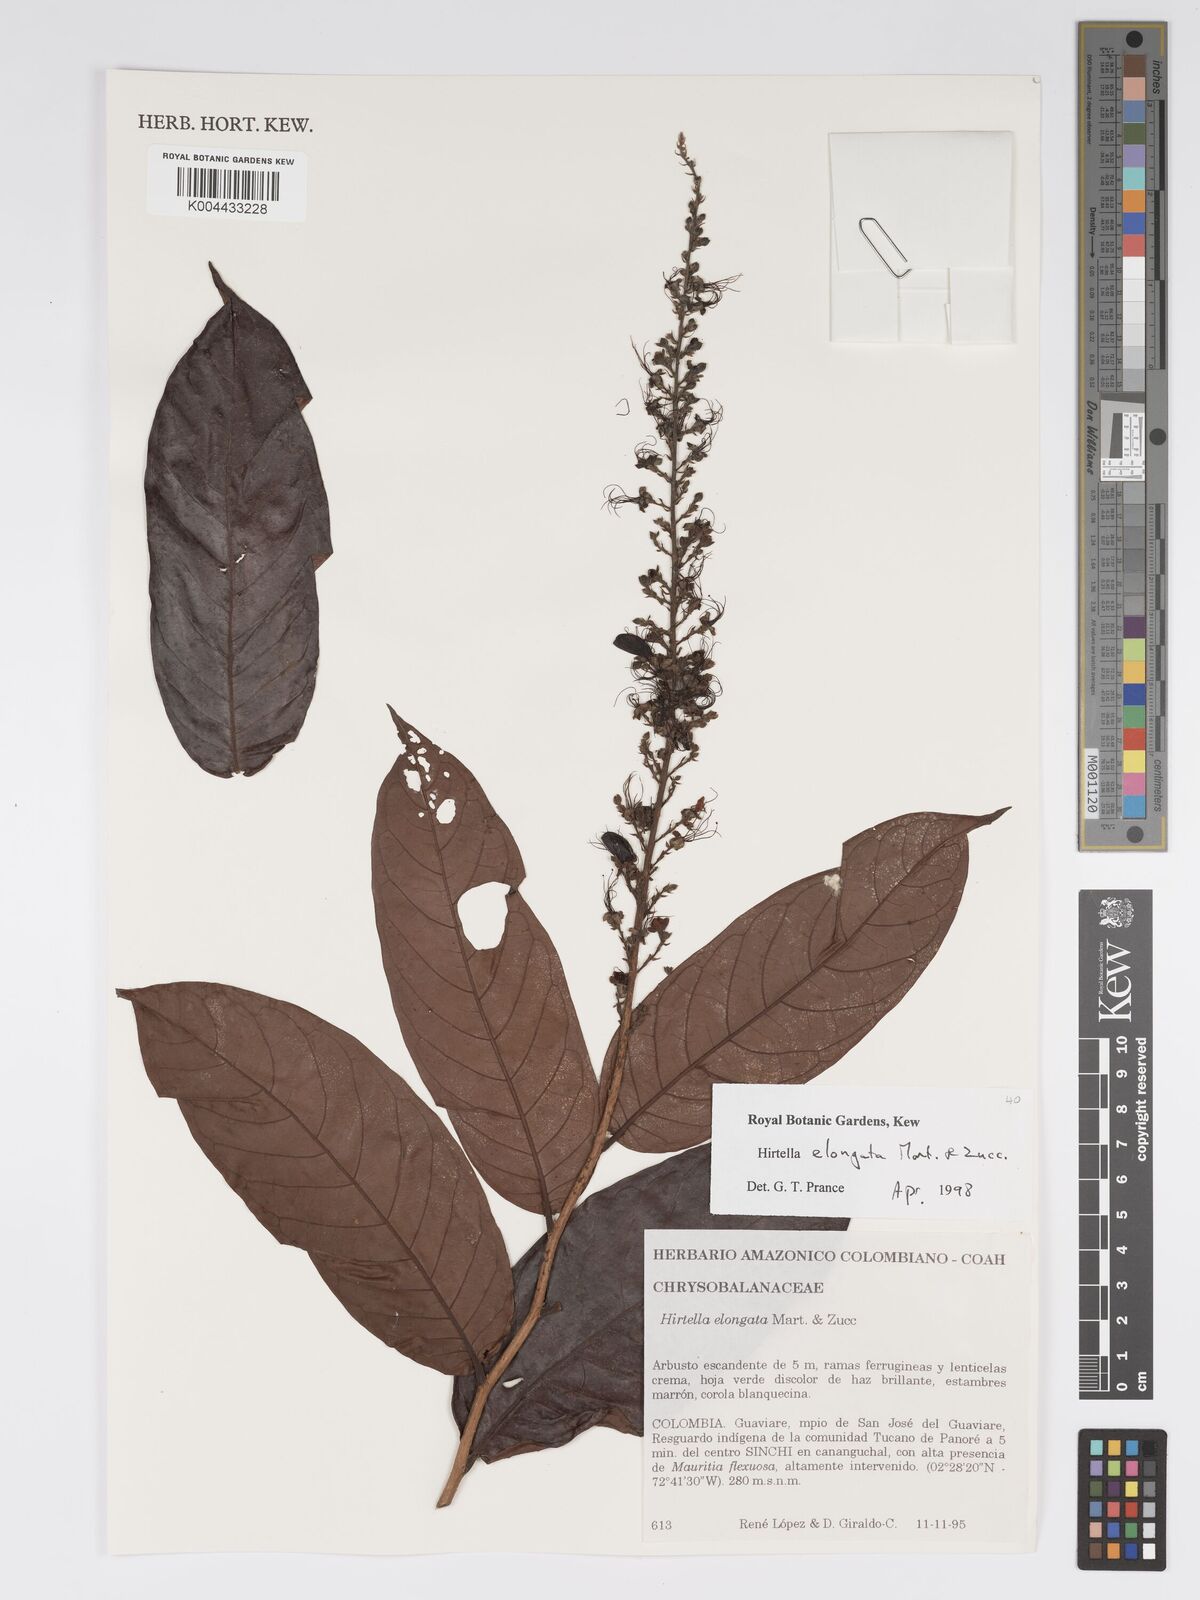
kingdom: Plantae
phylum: Tracheophyta
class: Magnoliopsida
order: Malpighiales
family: Chrysobalanaceae
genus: Hirtella
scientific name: Hirtella elongata
